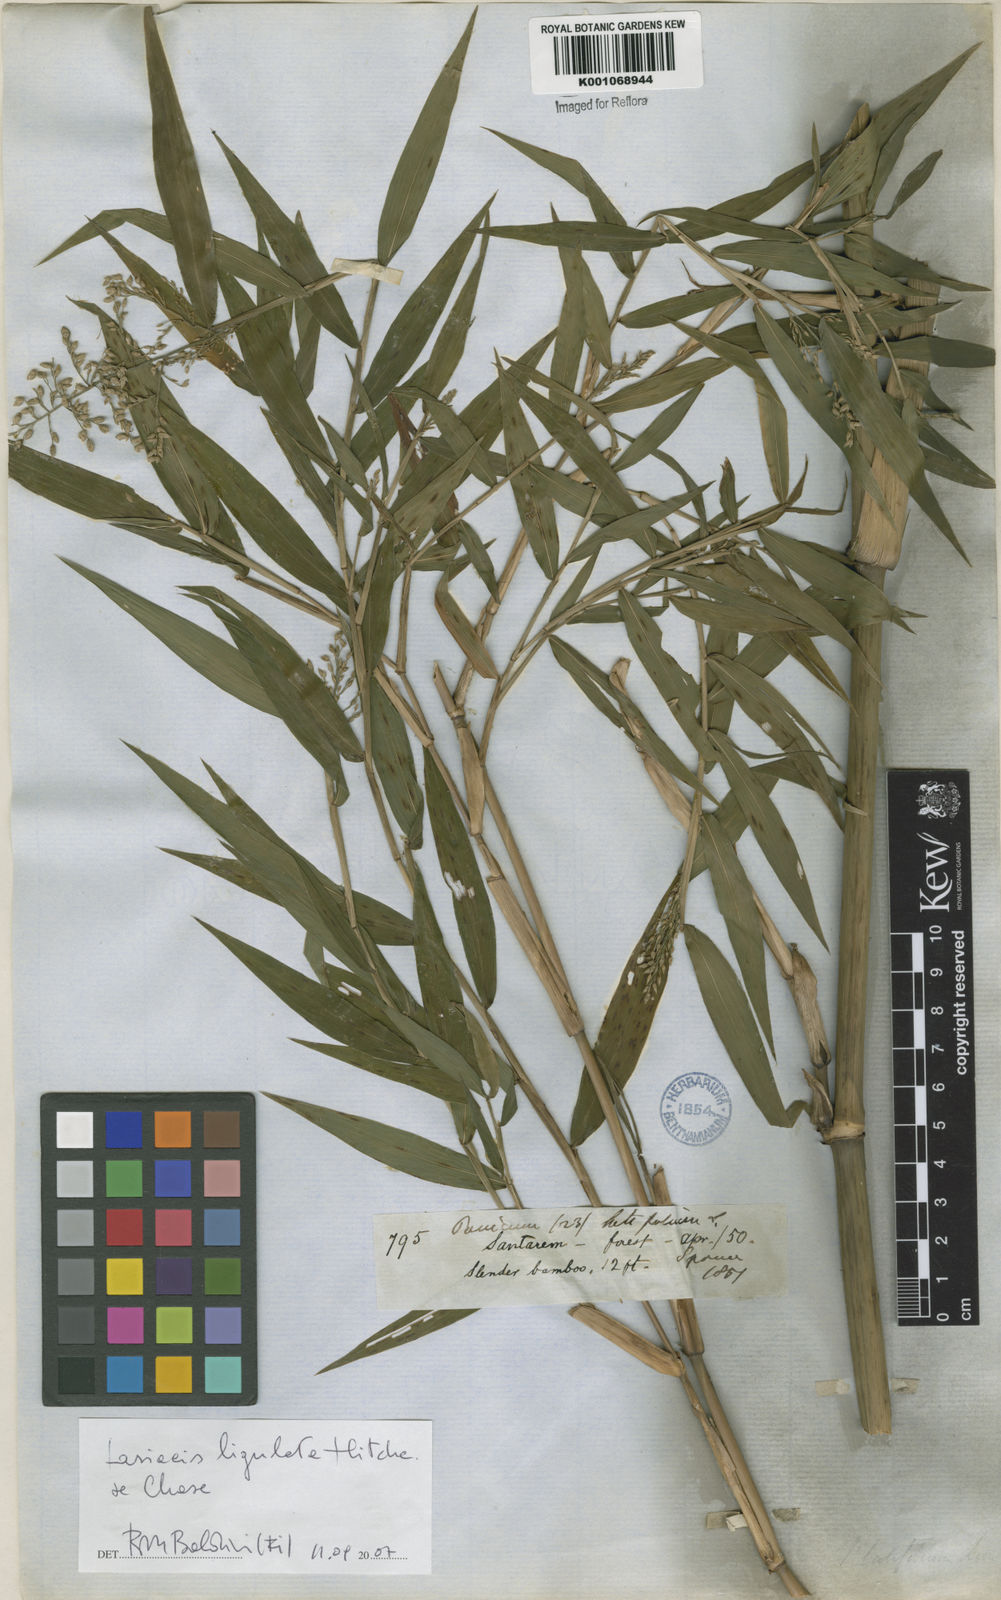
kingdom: Plantae
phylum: Tracheophyta
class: Liliopsida
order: Poales
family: Poaceae
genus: Lasiacis
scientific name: Lasiacis ligulata
